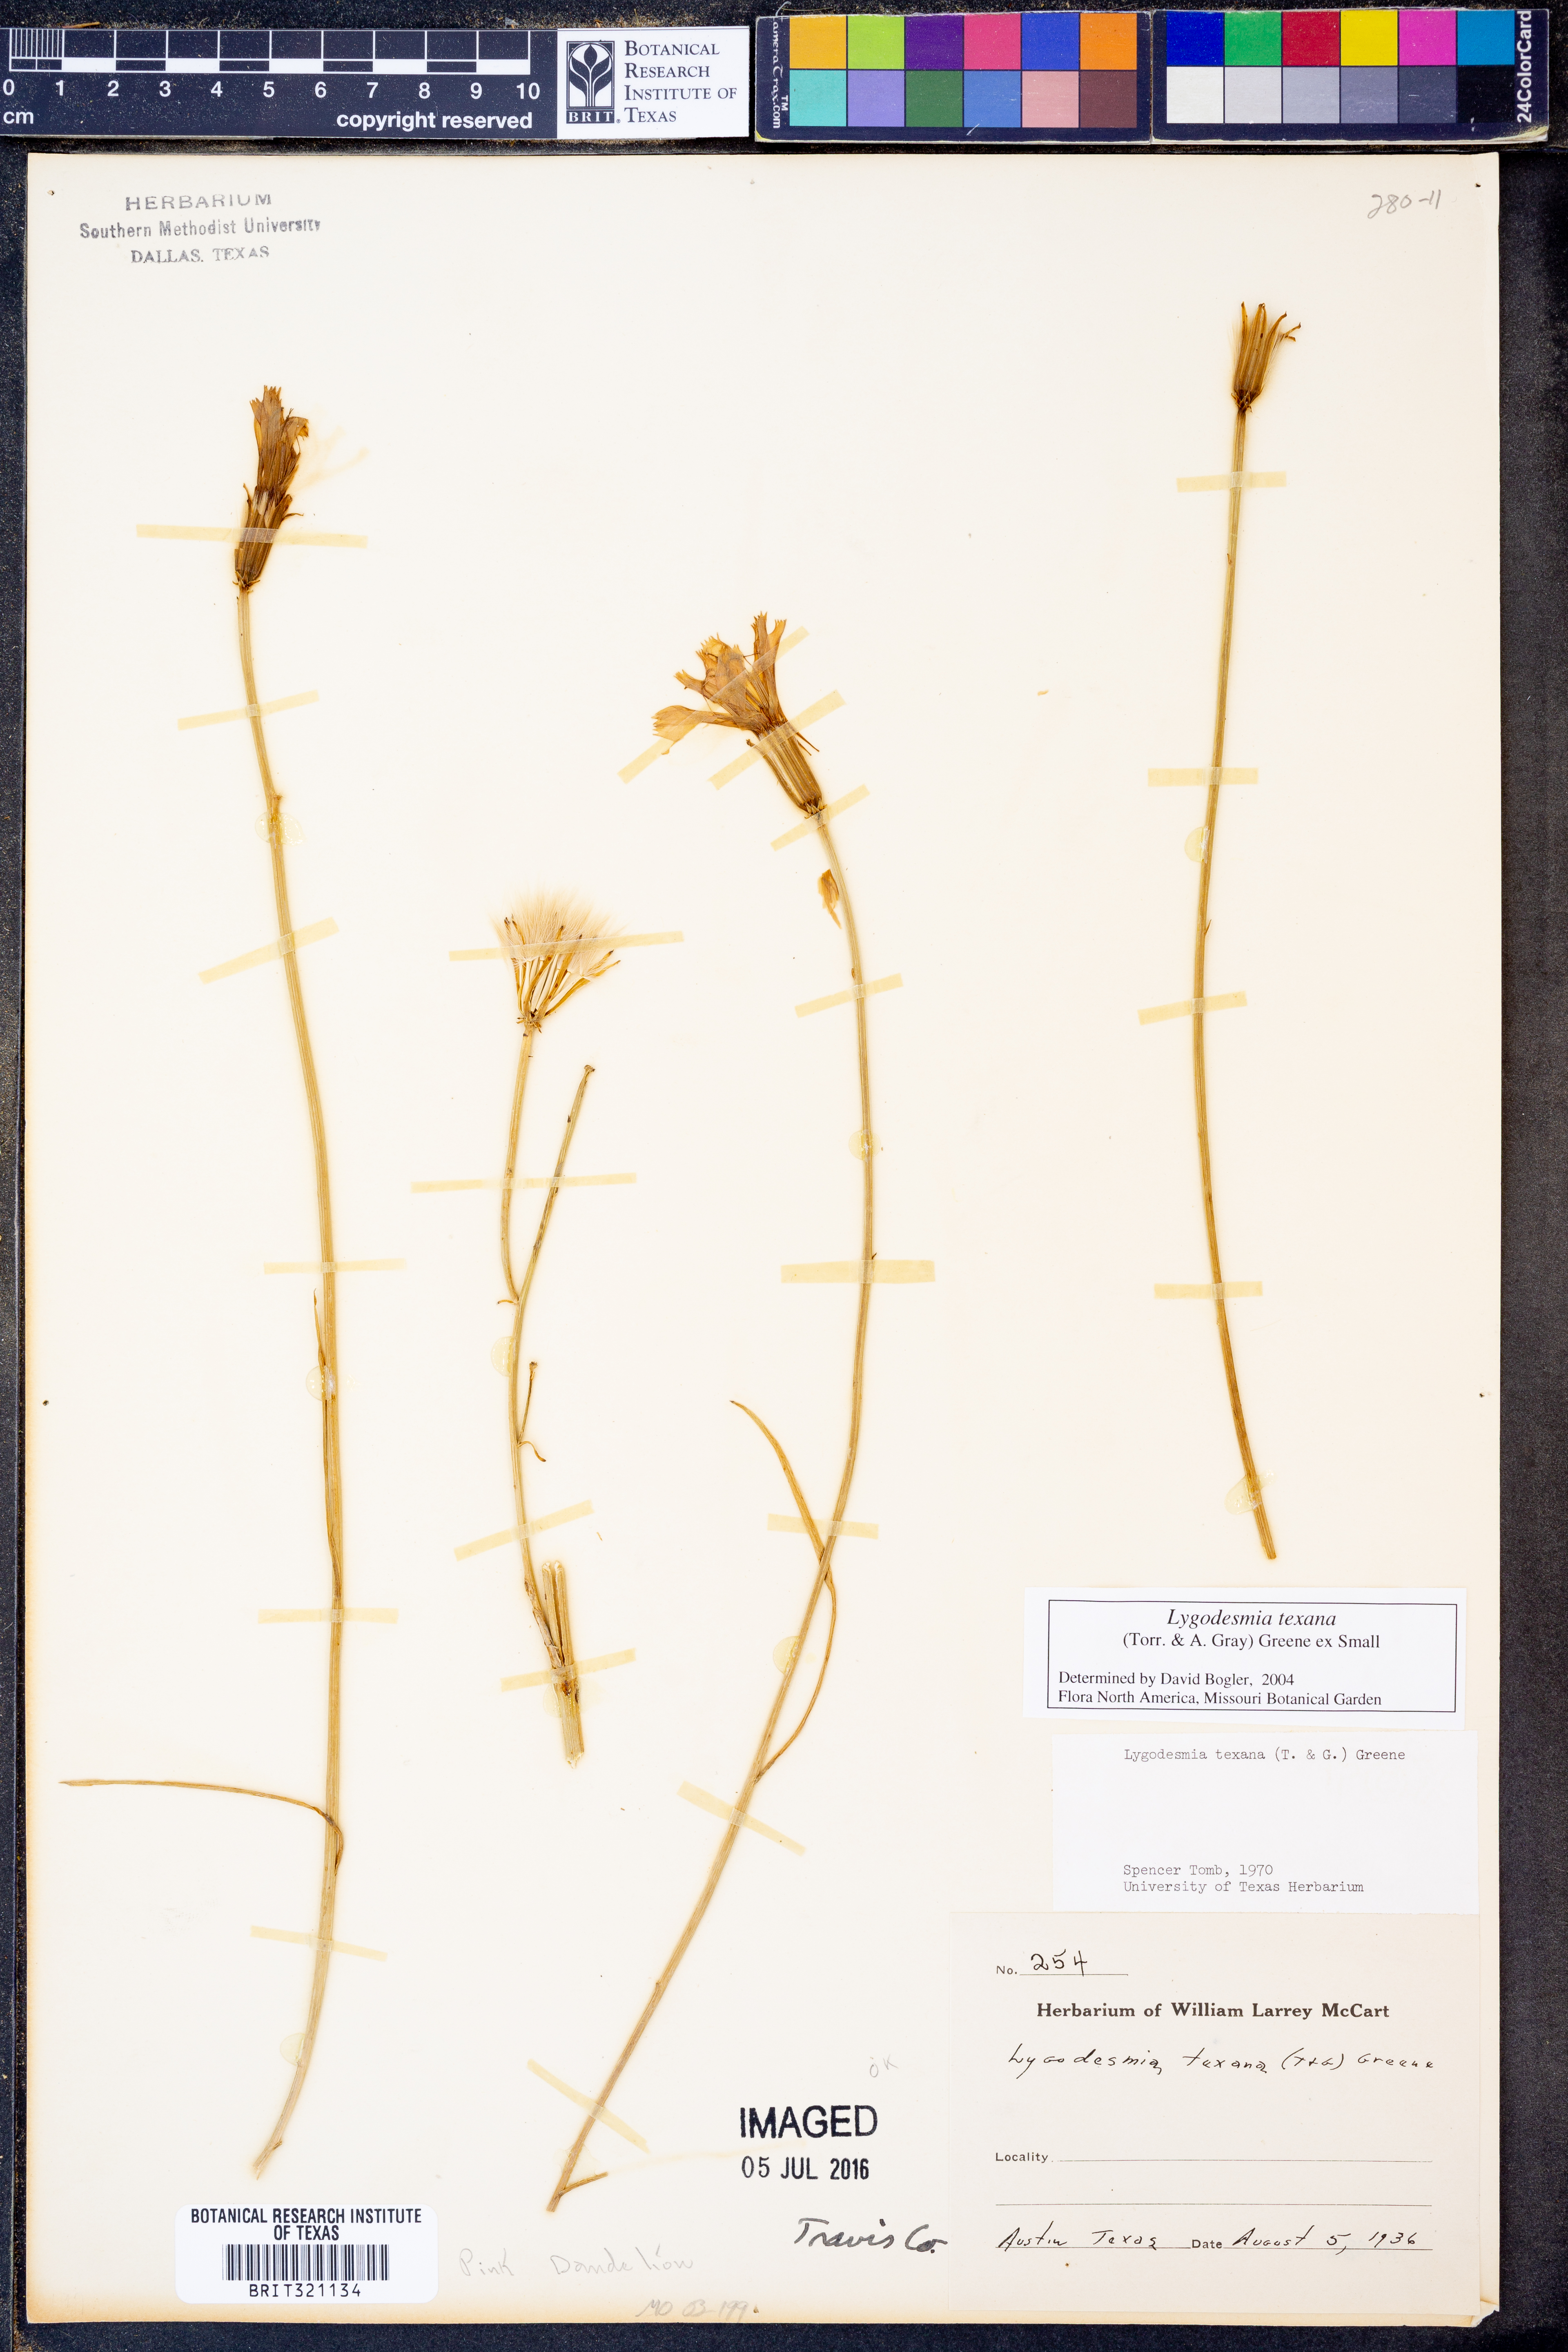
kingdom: Plantae
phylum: Tracheophyta
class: Magnoliopsida
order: Asterales
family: Asteraceae
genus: Lygodesmia
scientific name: Lygodesmia texana
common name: Texas skeleton-plant
